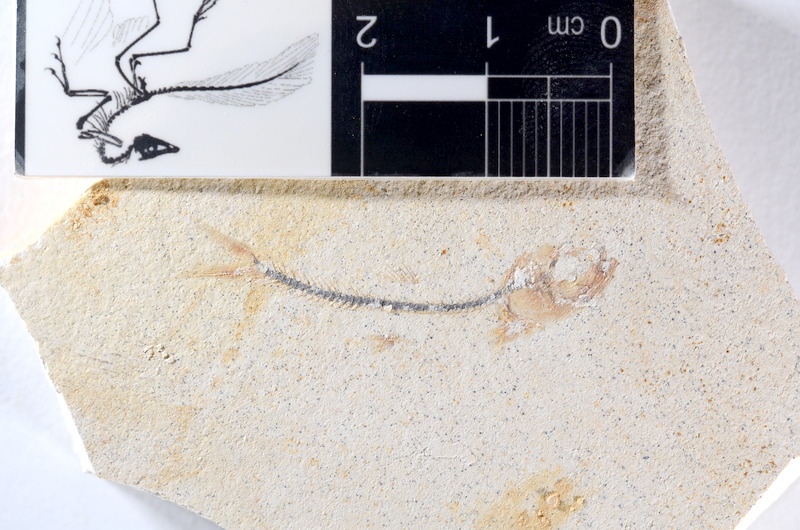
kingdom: Animalia
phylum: Chordata
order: Salmoniformes
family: Orthogonikleithridae
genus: Orthogonikleithrus
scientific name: Orthogonikleithrus hoelli
